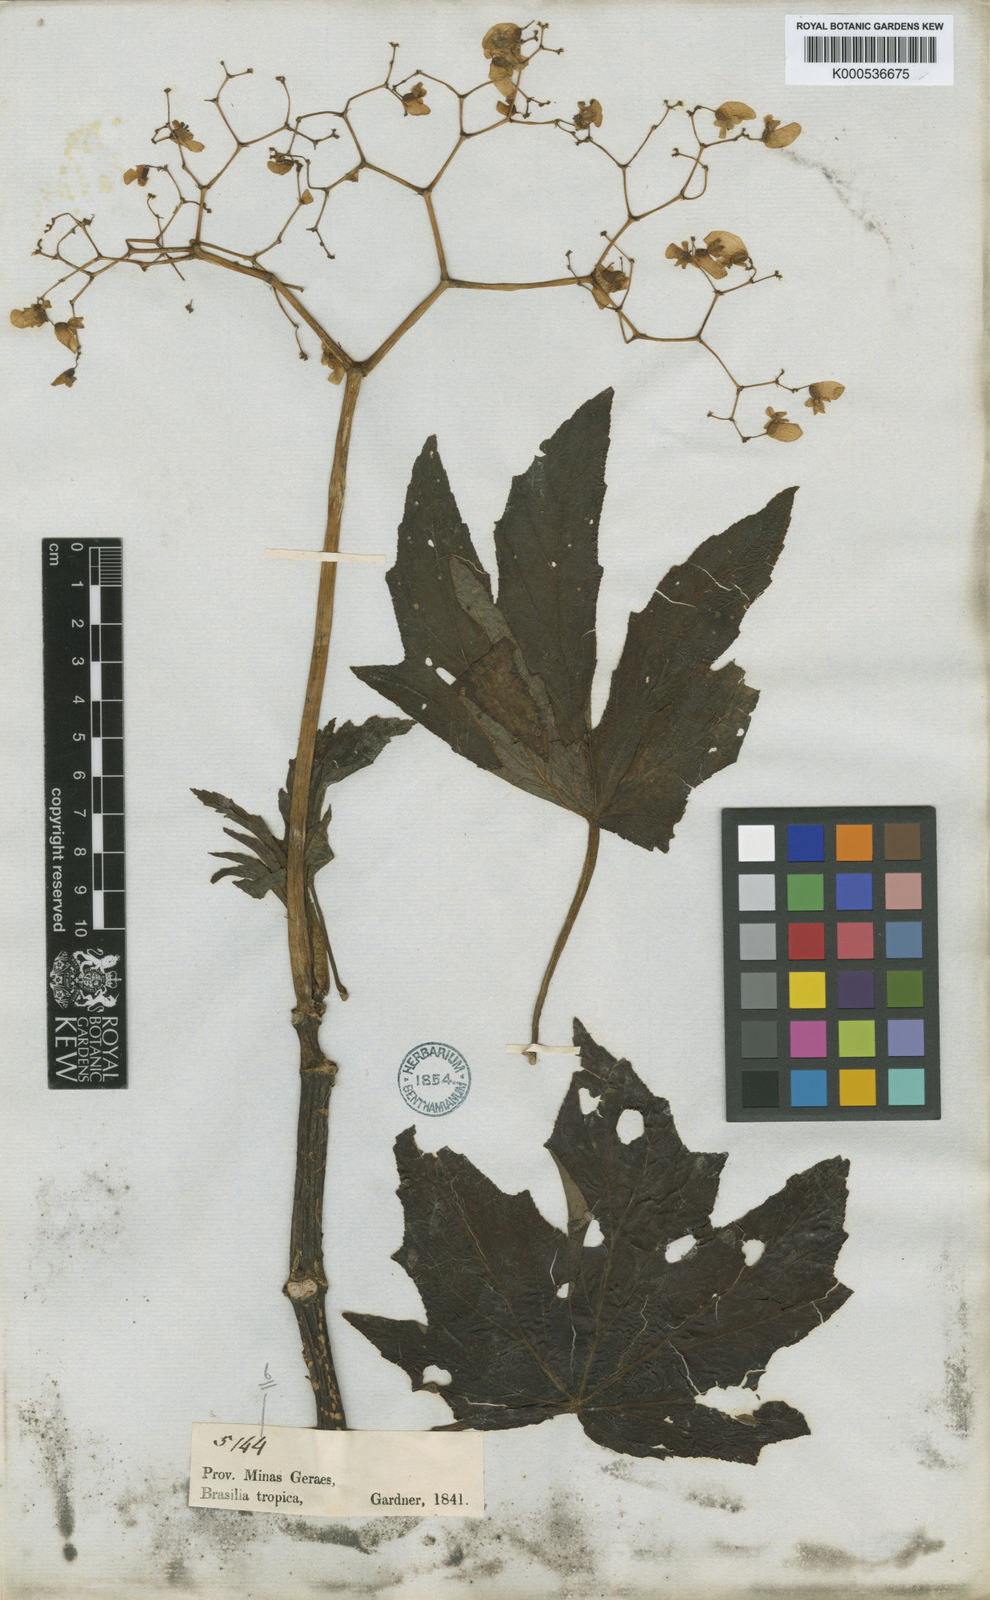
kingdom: Plantae
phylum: Tracheophyta
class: Magnoliopsida
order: Cucurbitales
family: Begoniaceae
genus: Begonia
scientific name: Begonia gardneri
